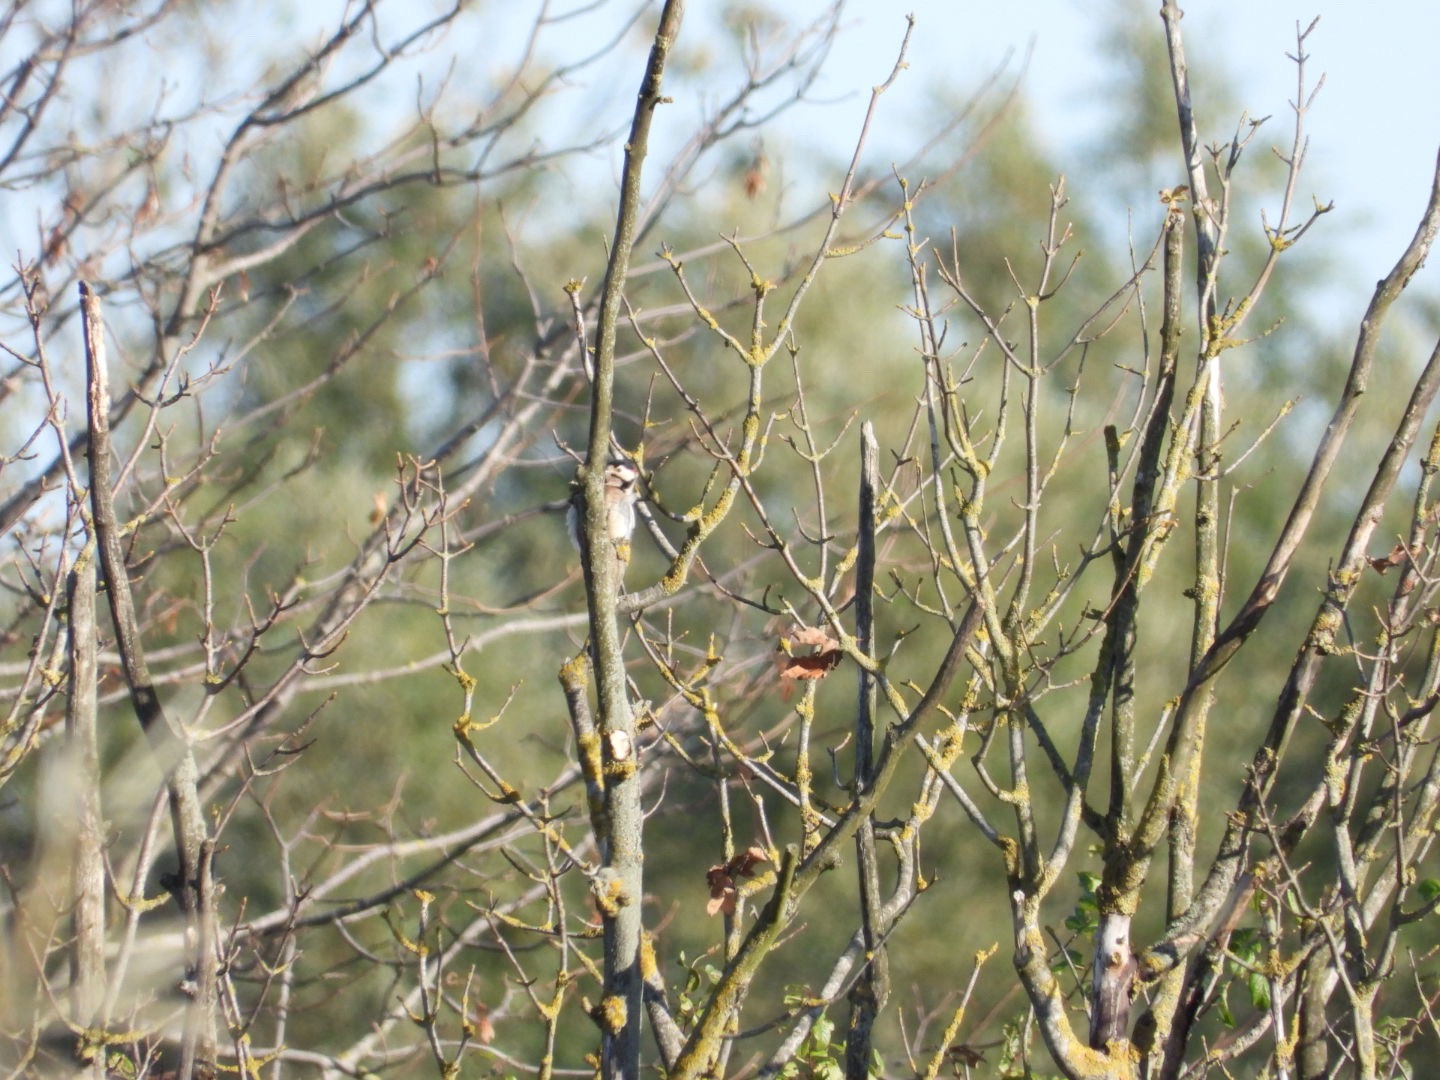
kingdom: Animalia
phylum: Chordata
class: Aves
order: Piciformes
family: Picidae
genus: Dendrocopos
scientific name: Dendrocopos major
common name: Stor flagspætte
